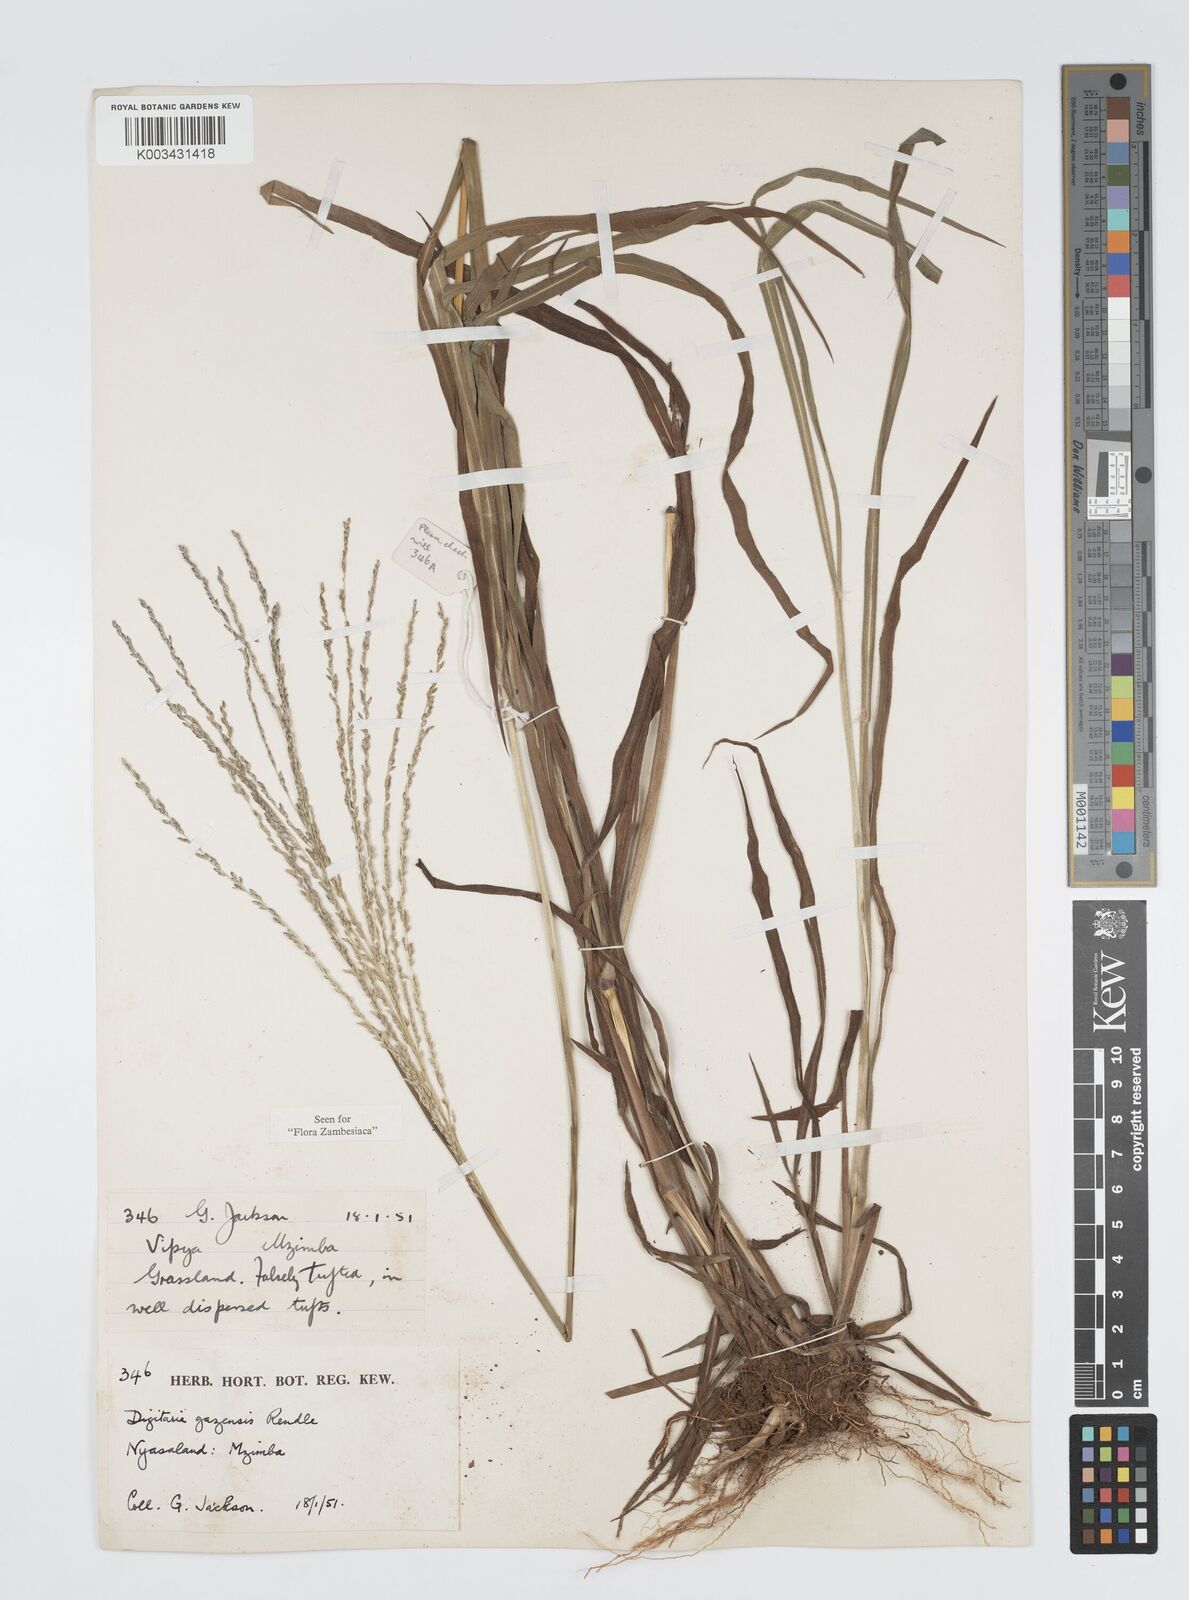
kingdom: Plantae
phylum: Tracheophyta
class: Liliopsida
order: Poales
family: Poaceae
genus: Digitaria
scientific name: Digitaria gazensis
